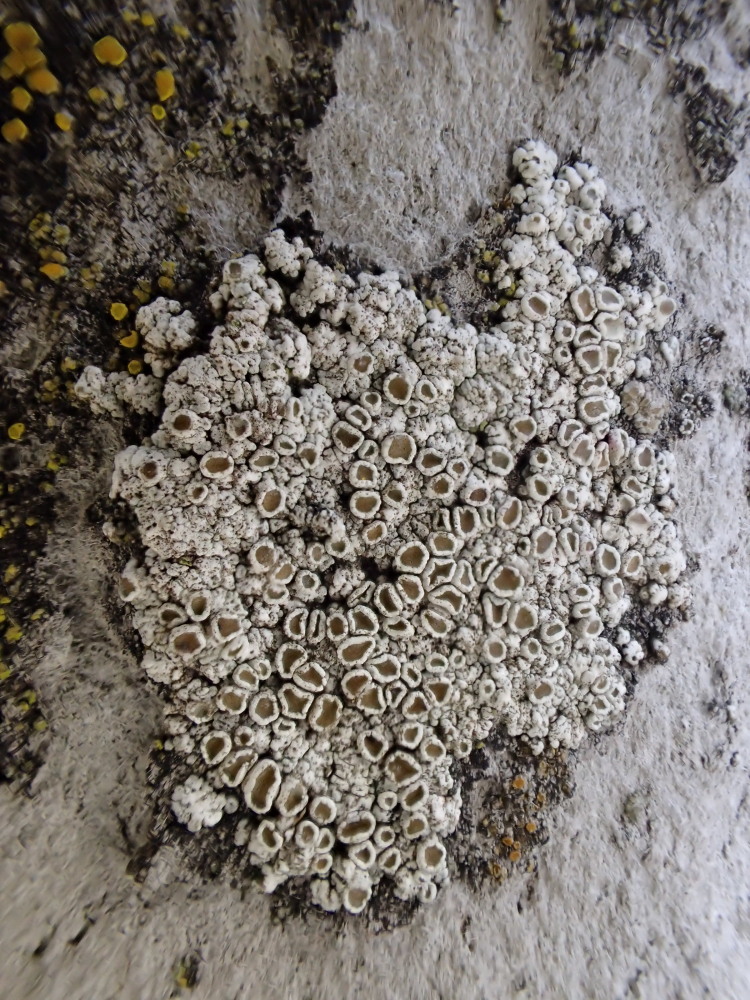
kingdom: Fungi
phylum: Ascomycota
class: Lecanoromycetes
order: Lecanorales
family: Lecanoraceae
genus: Polyozosia
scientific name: Polyozosia albescens
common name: cement-kantskivelav
